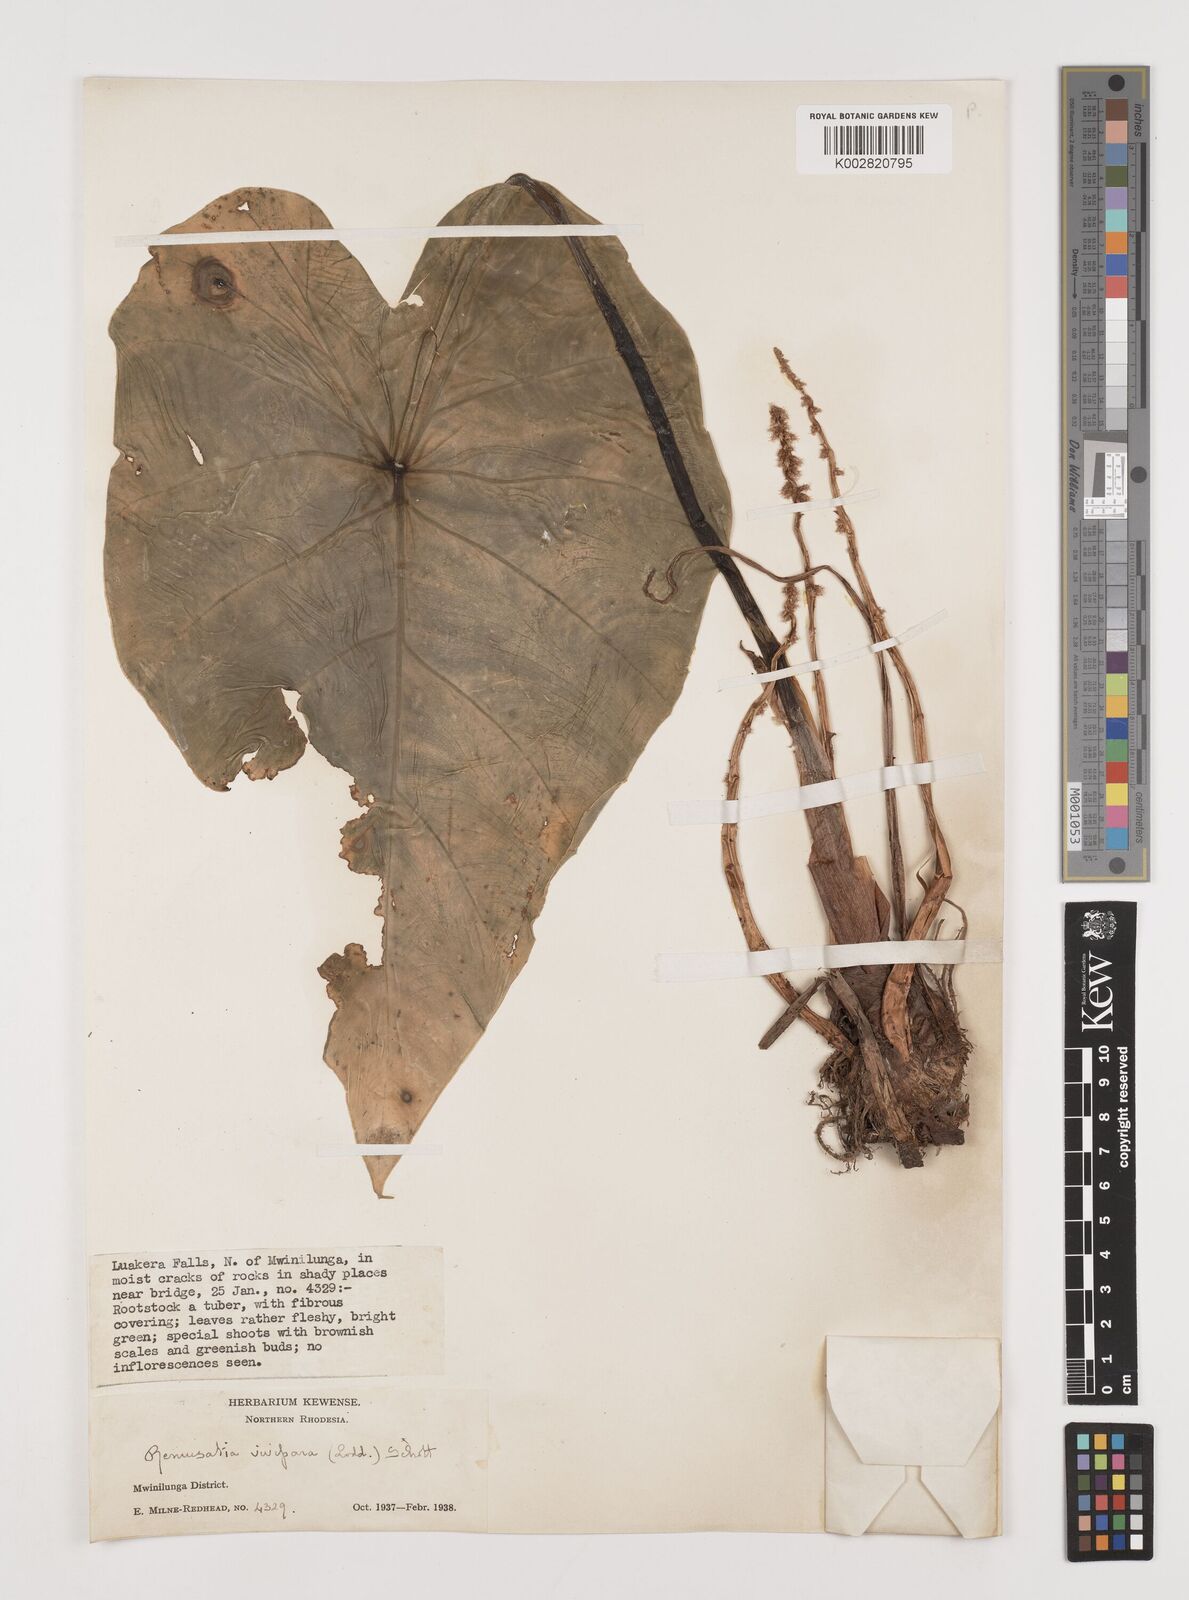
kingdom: Plantae
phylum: Tracheophyta
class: Liliopsida
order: Alismatales
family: Araceae
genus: Remusatia
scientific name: Remusatia vivipara
